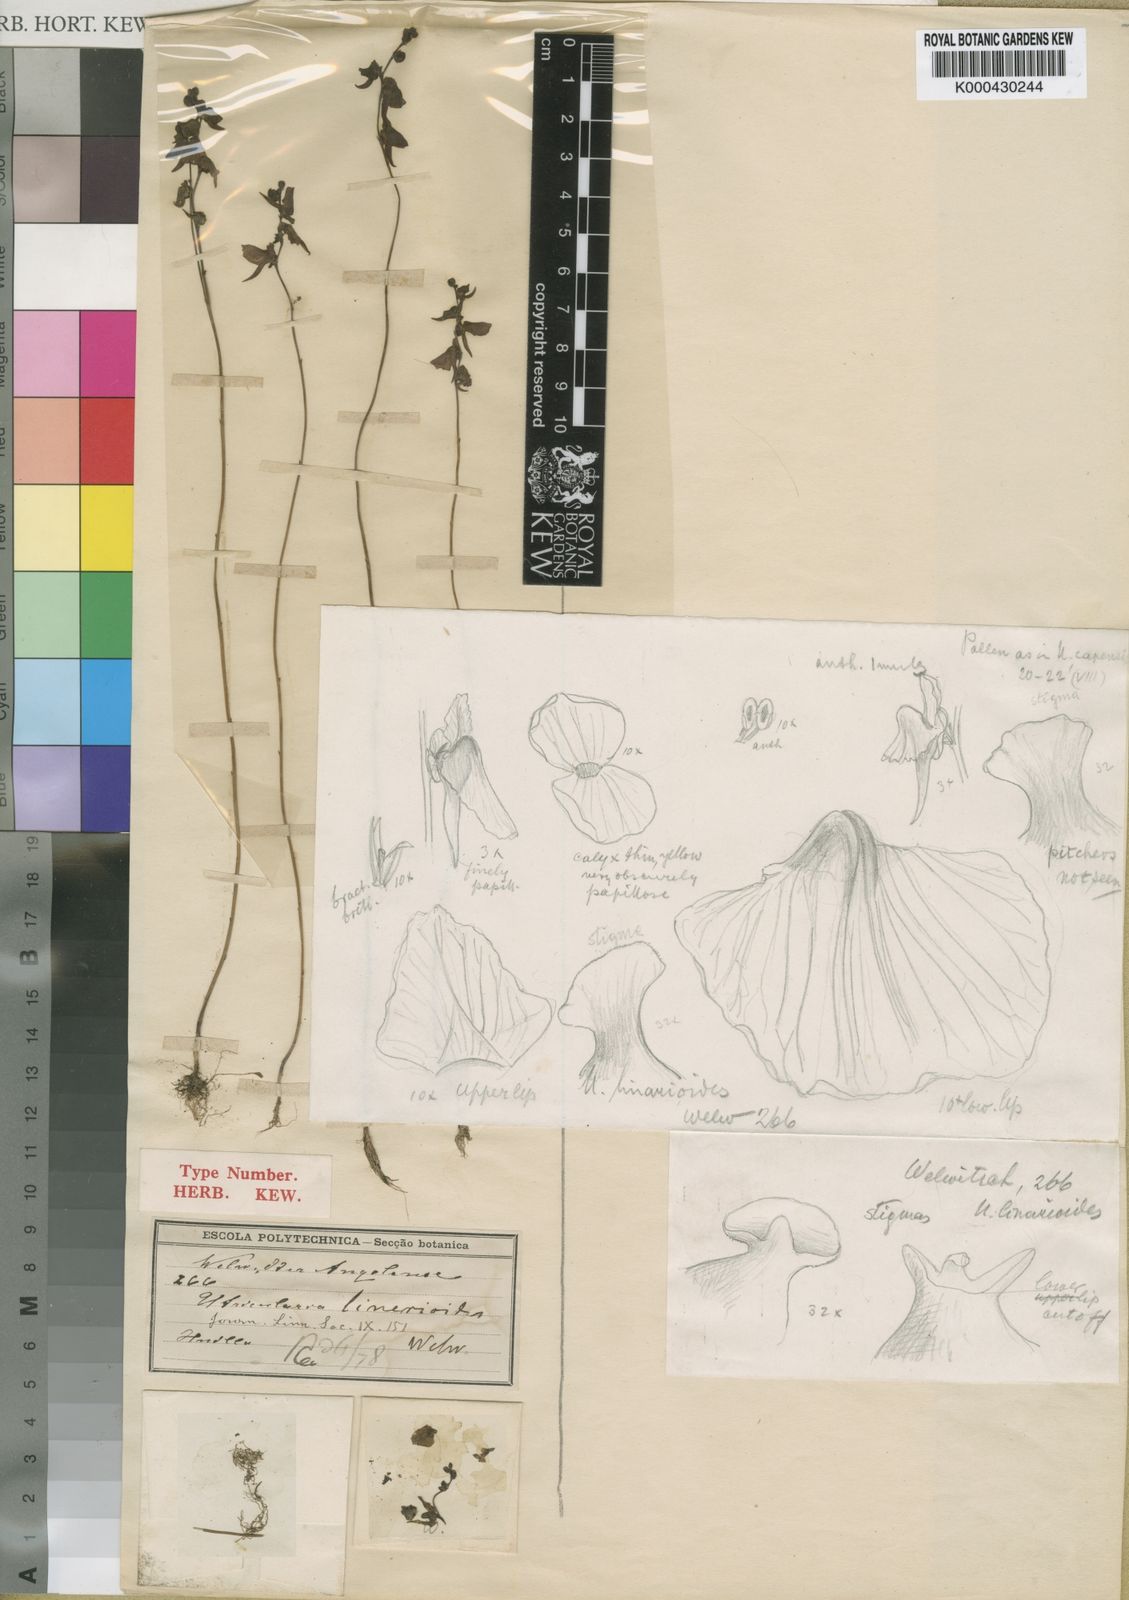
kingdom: Plantae
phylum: Tracheophyta
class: Magnoliopsida
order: Lamiales
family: Lentibulariaceae
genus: Utricularia
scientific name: Utricularia welwitschii
